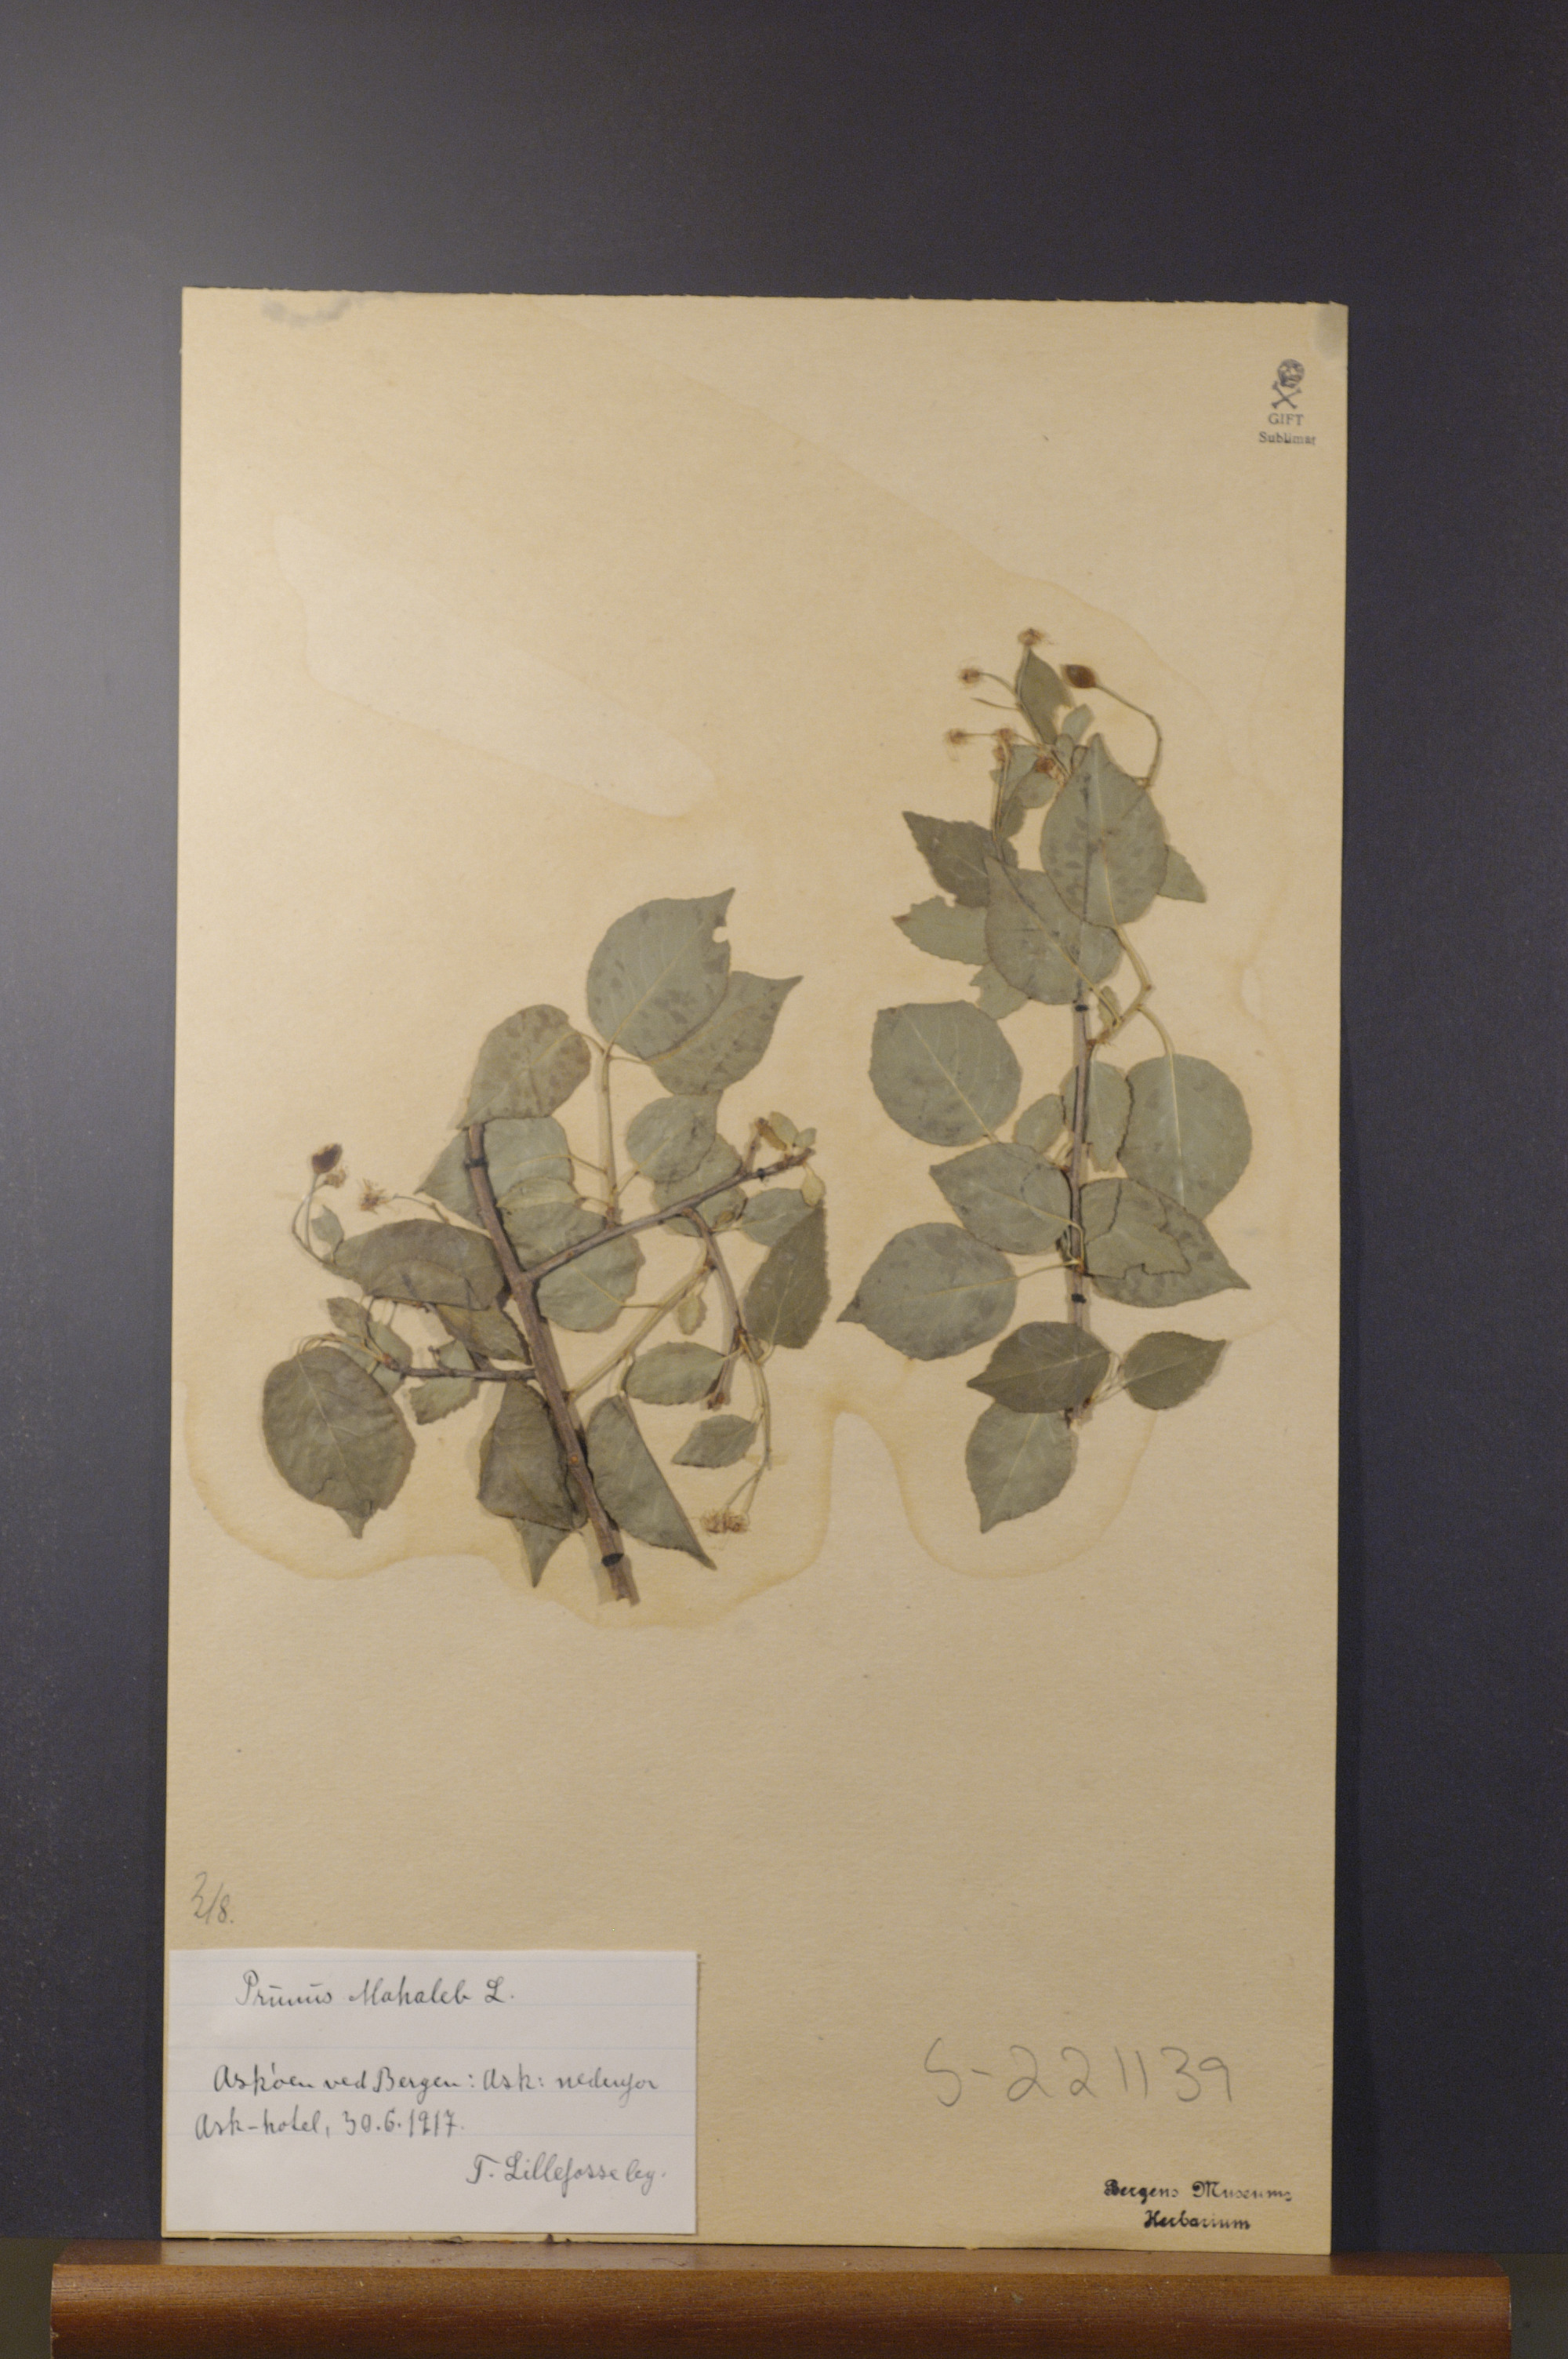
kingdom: Plantae
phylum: Tracheophyta
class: Magnoliopsida
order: Rosales
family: Rosaceae
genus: Prunus
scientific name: Prunus mahaleb
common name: Mahaleb cherry
